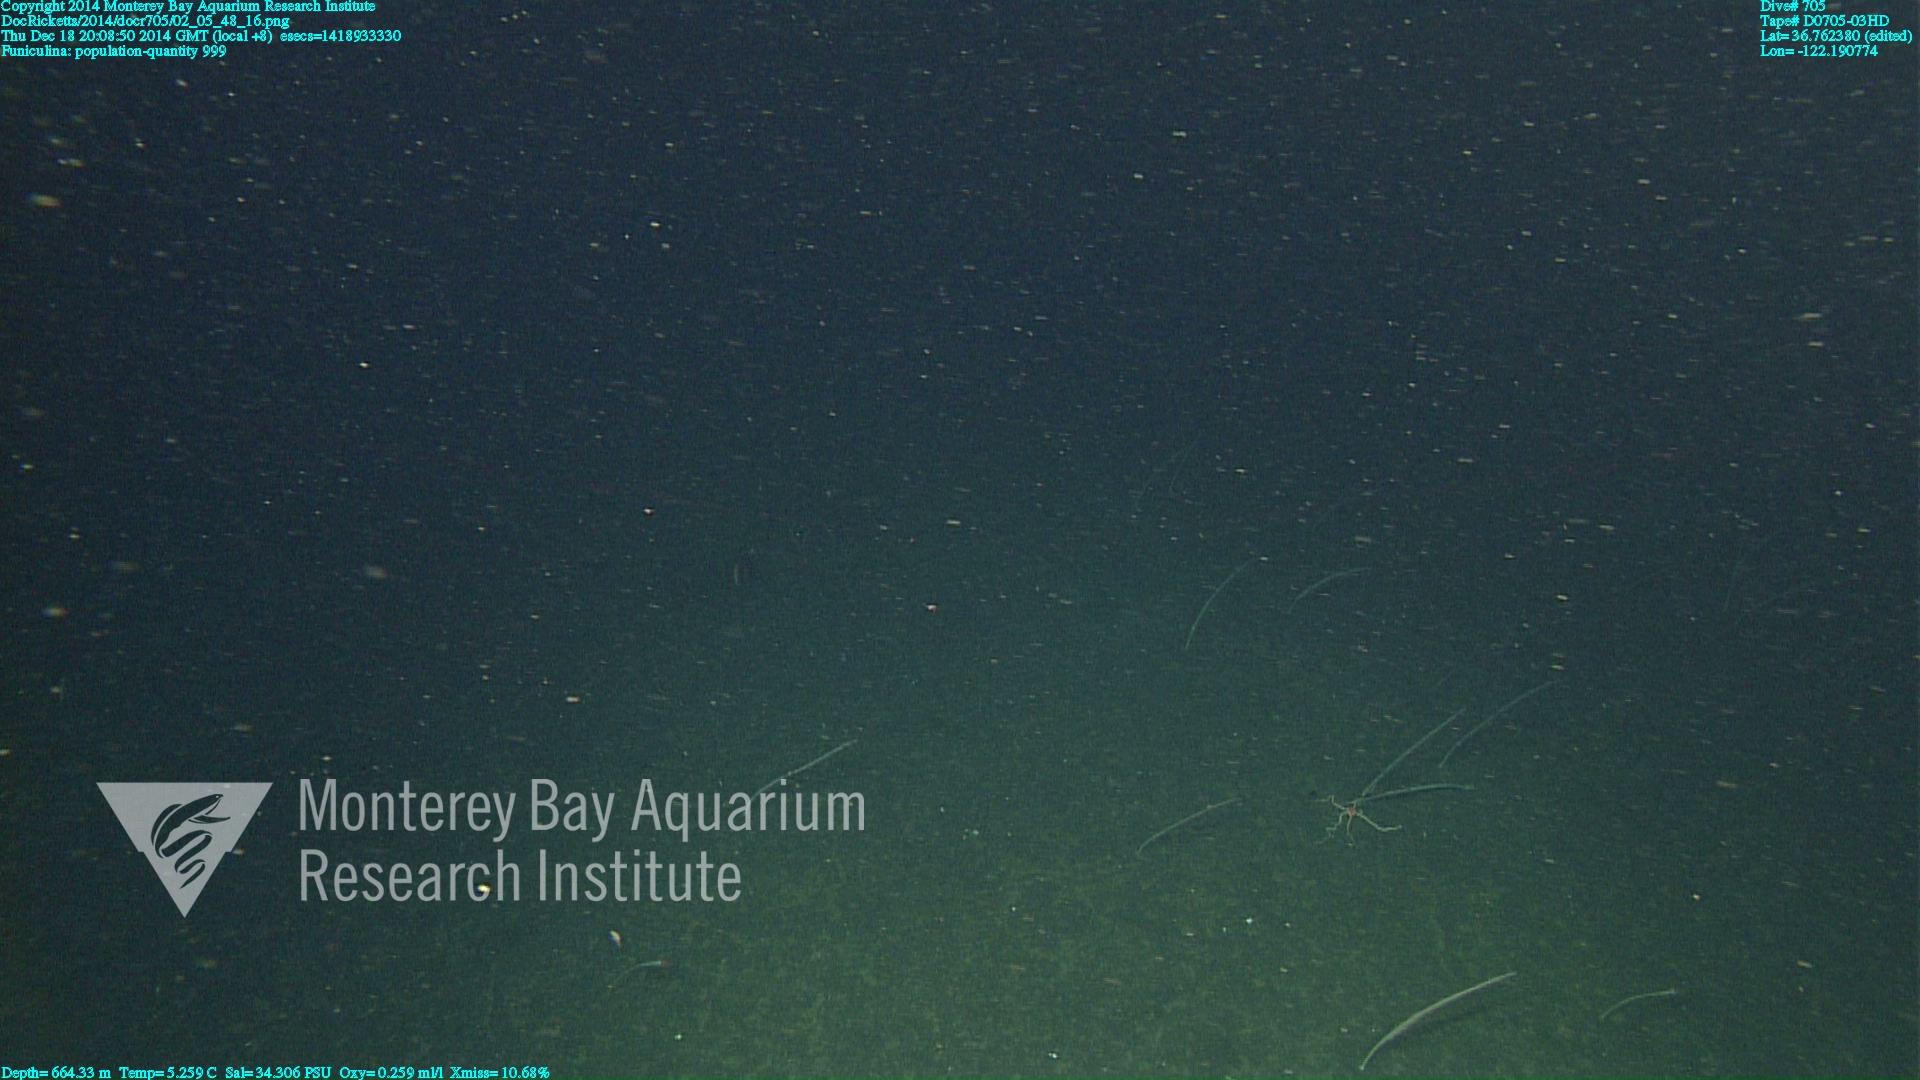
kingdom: Animalia
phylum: Cnidaria
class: Anthozoa
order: Scleralcyonacea
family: Funiculinidae
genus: Funiculina
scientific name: Funiculina
